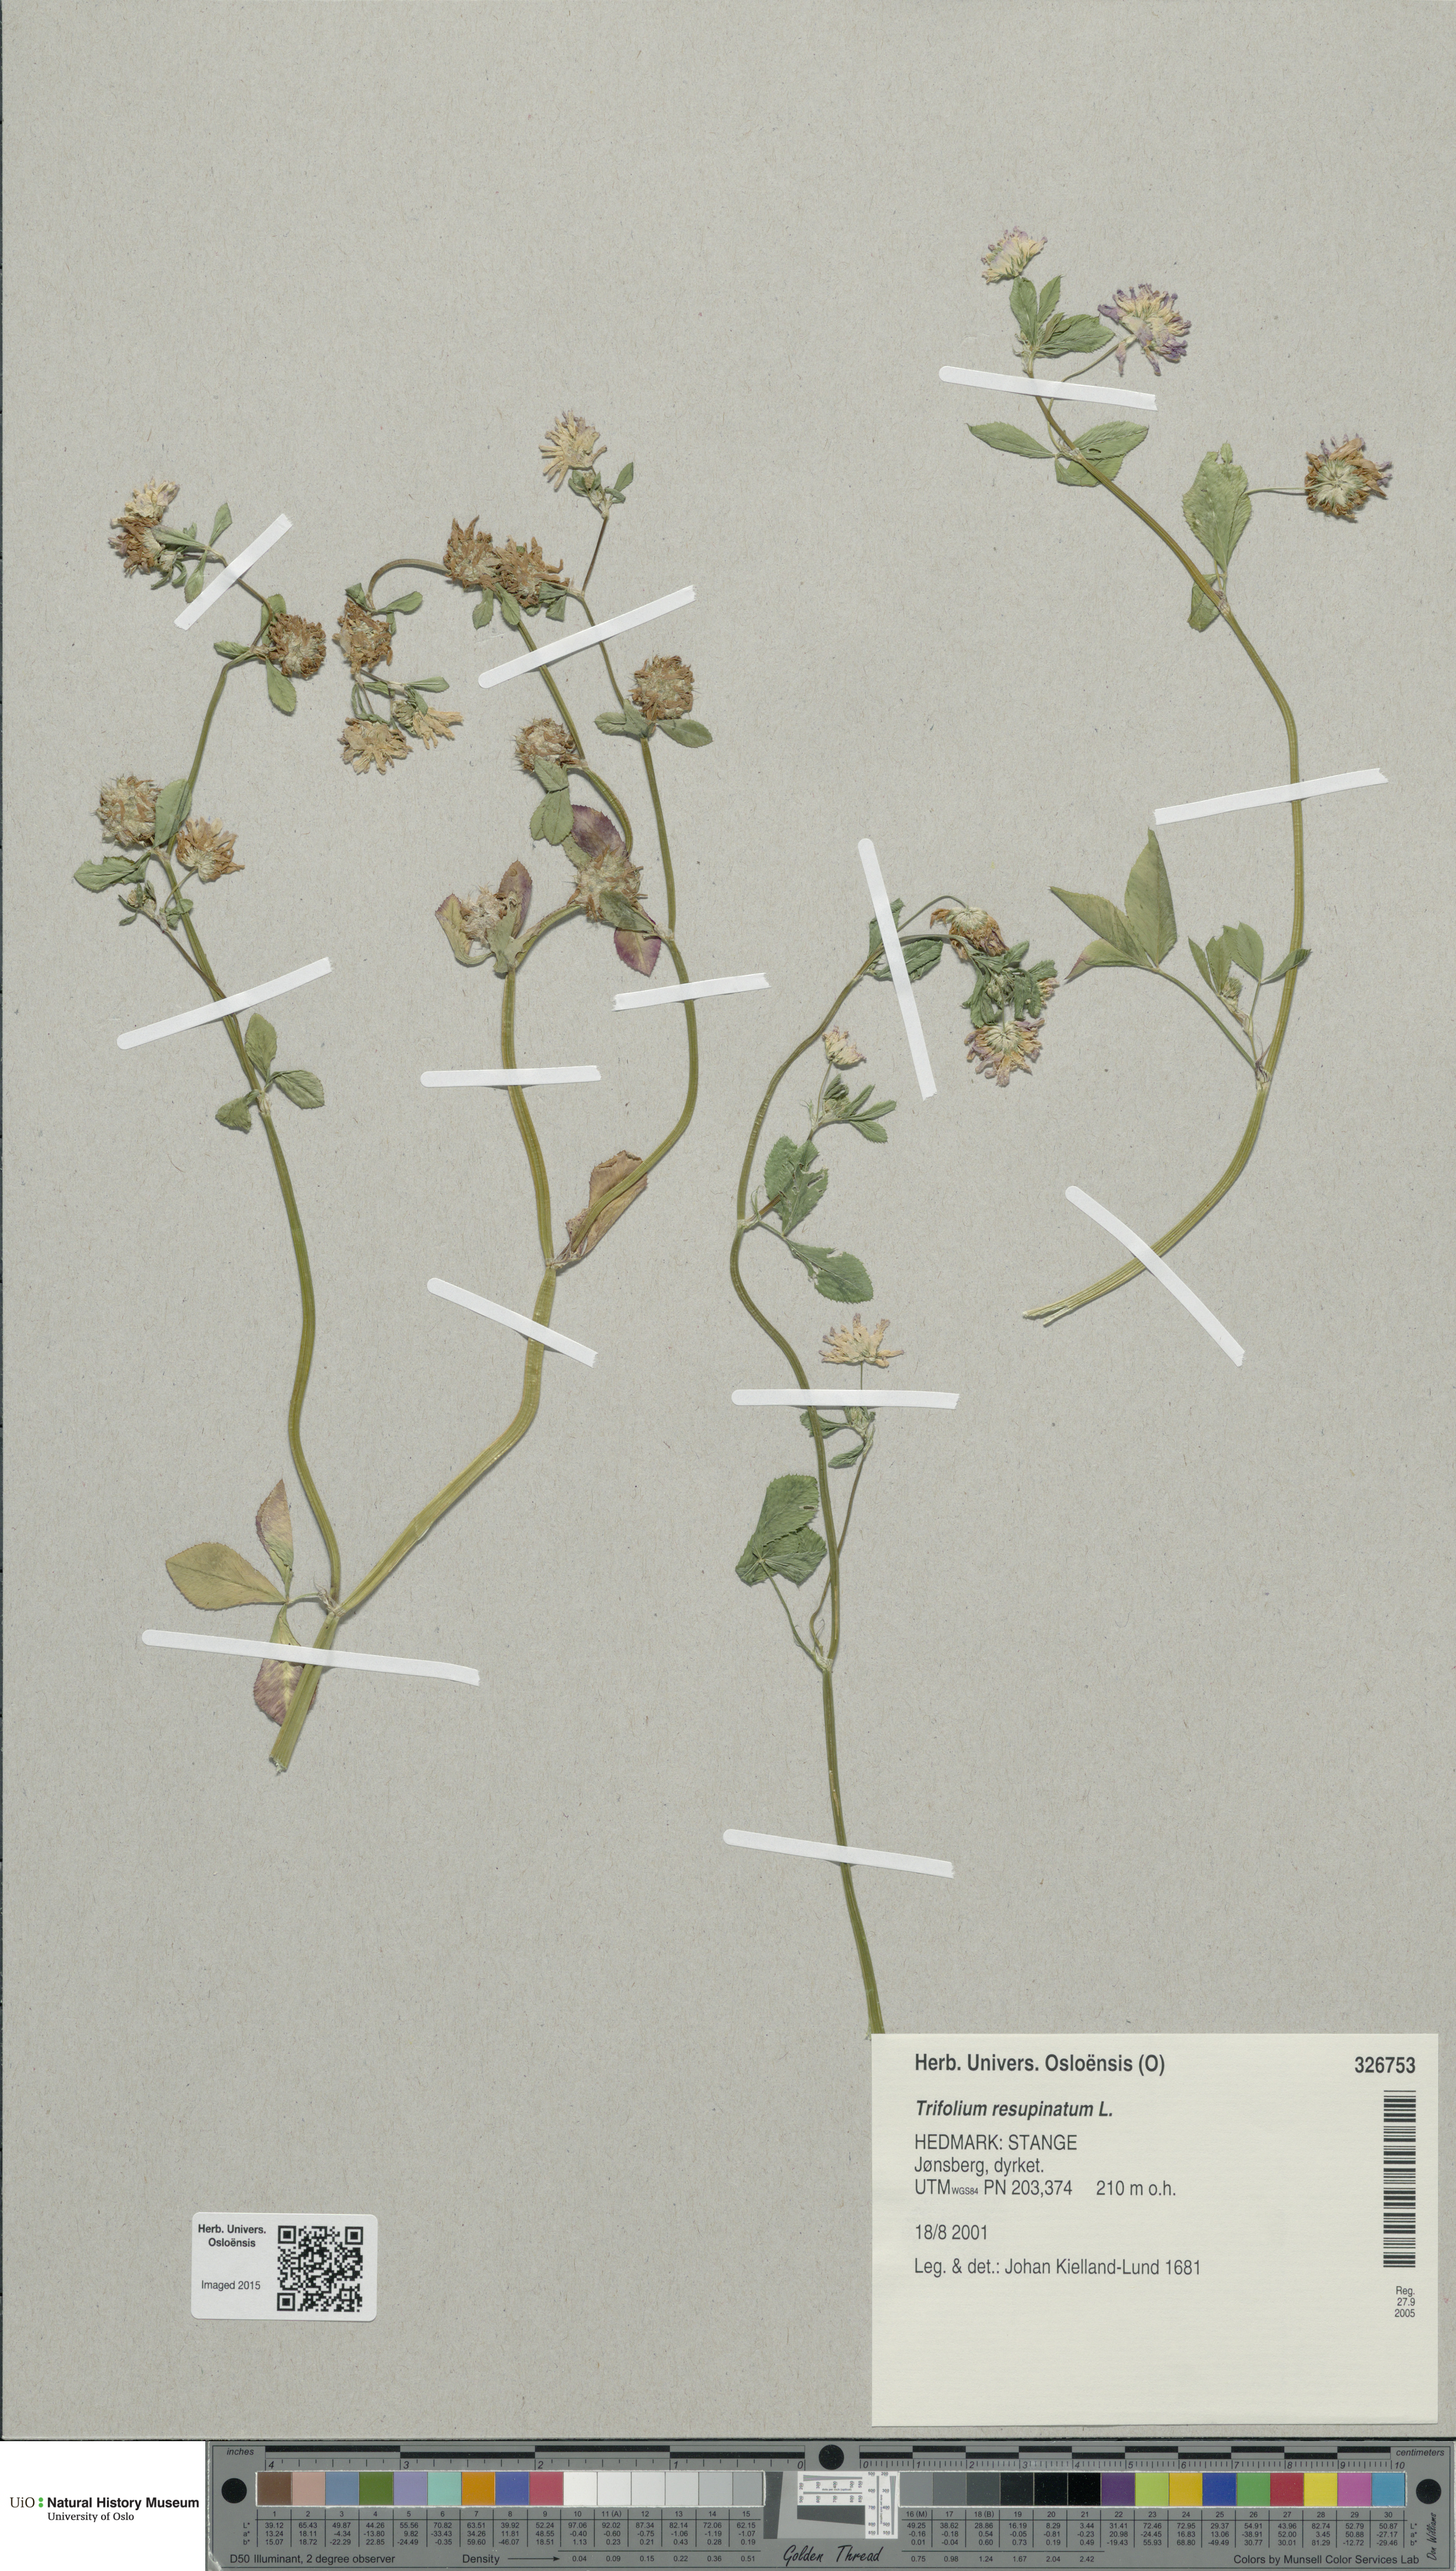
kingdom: Plantae
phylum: Tracheophyta
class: Magnoliopsida
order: Fabales
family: Fabaceae
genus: Trifolium
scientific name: Trifolium resupinatum
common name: Reversed clover
